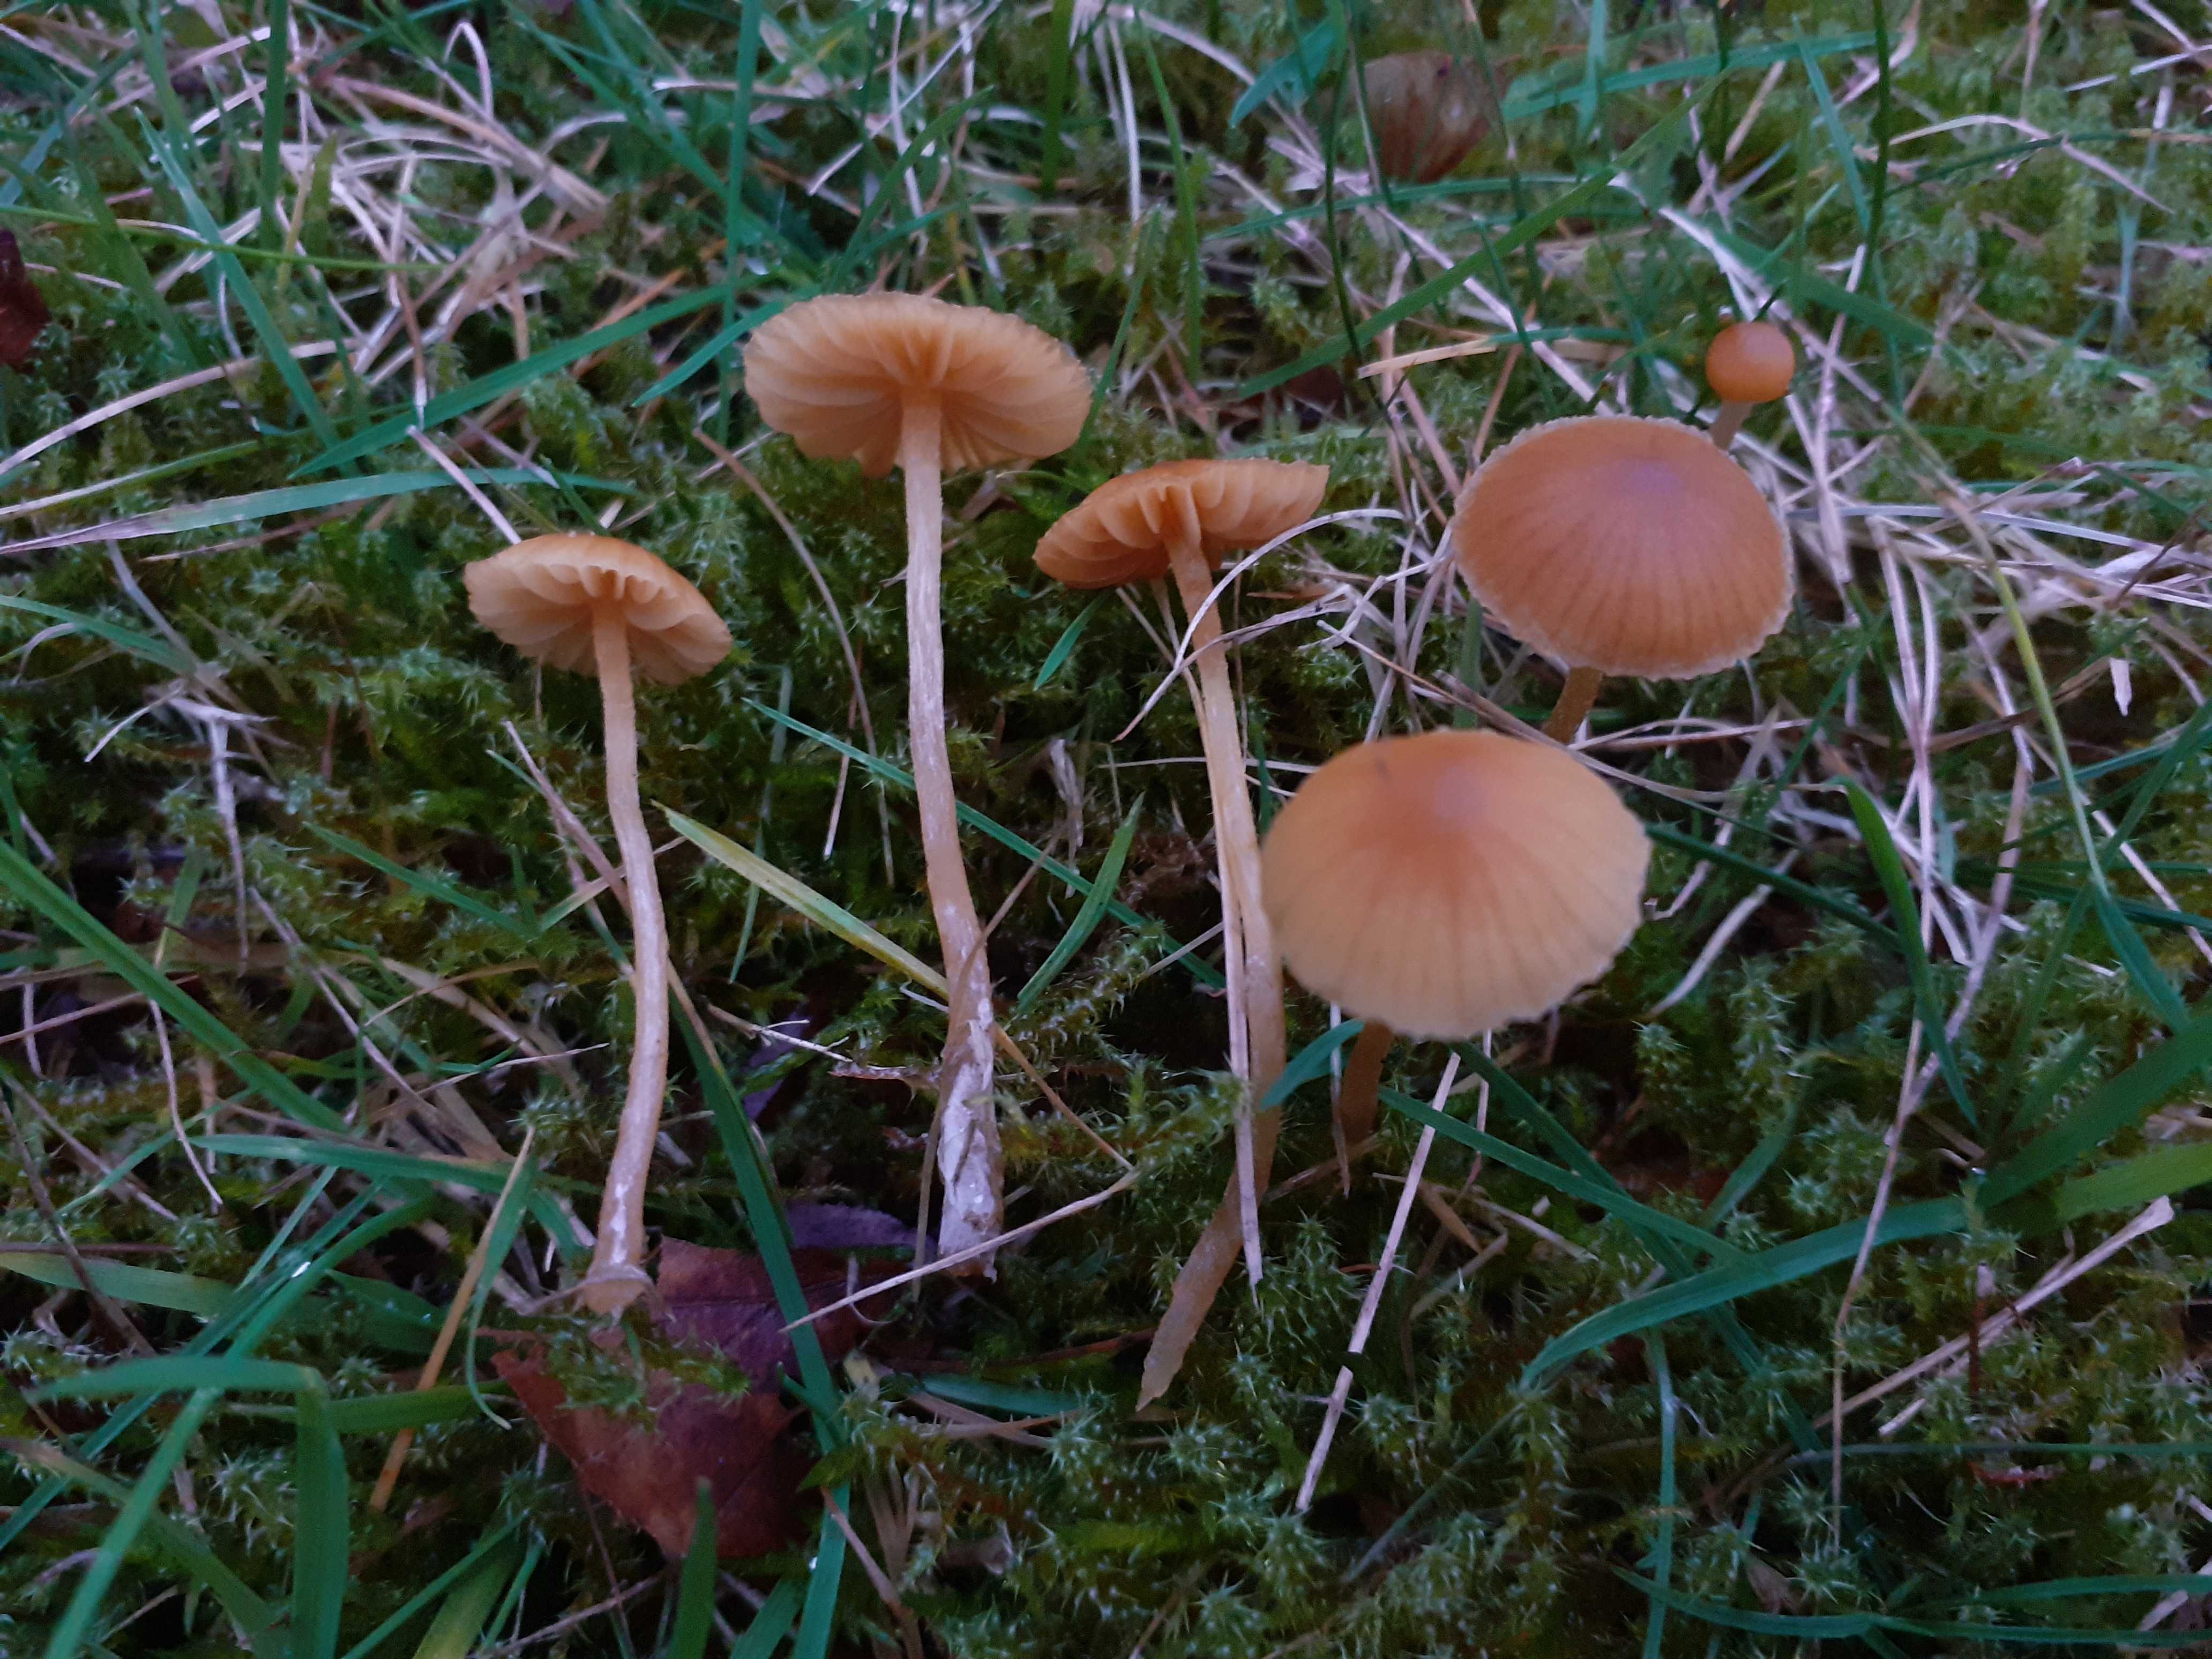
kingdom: Fungi
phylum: Basidiomycota
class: Agaricomycetes
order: Agaricales
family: Hymenogastraceae
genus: Galerina
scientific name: Galerina
